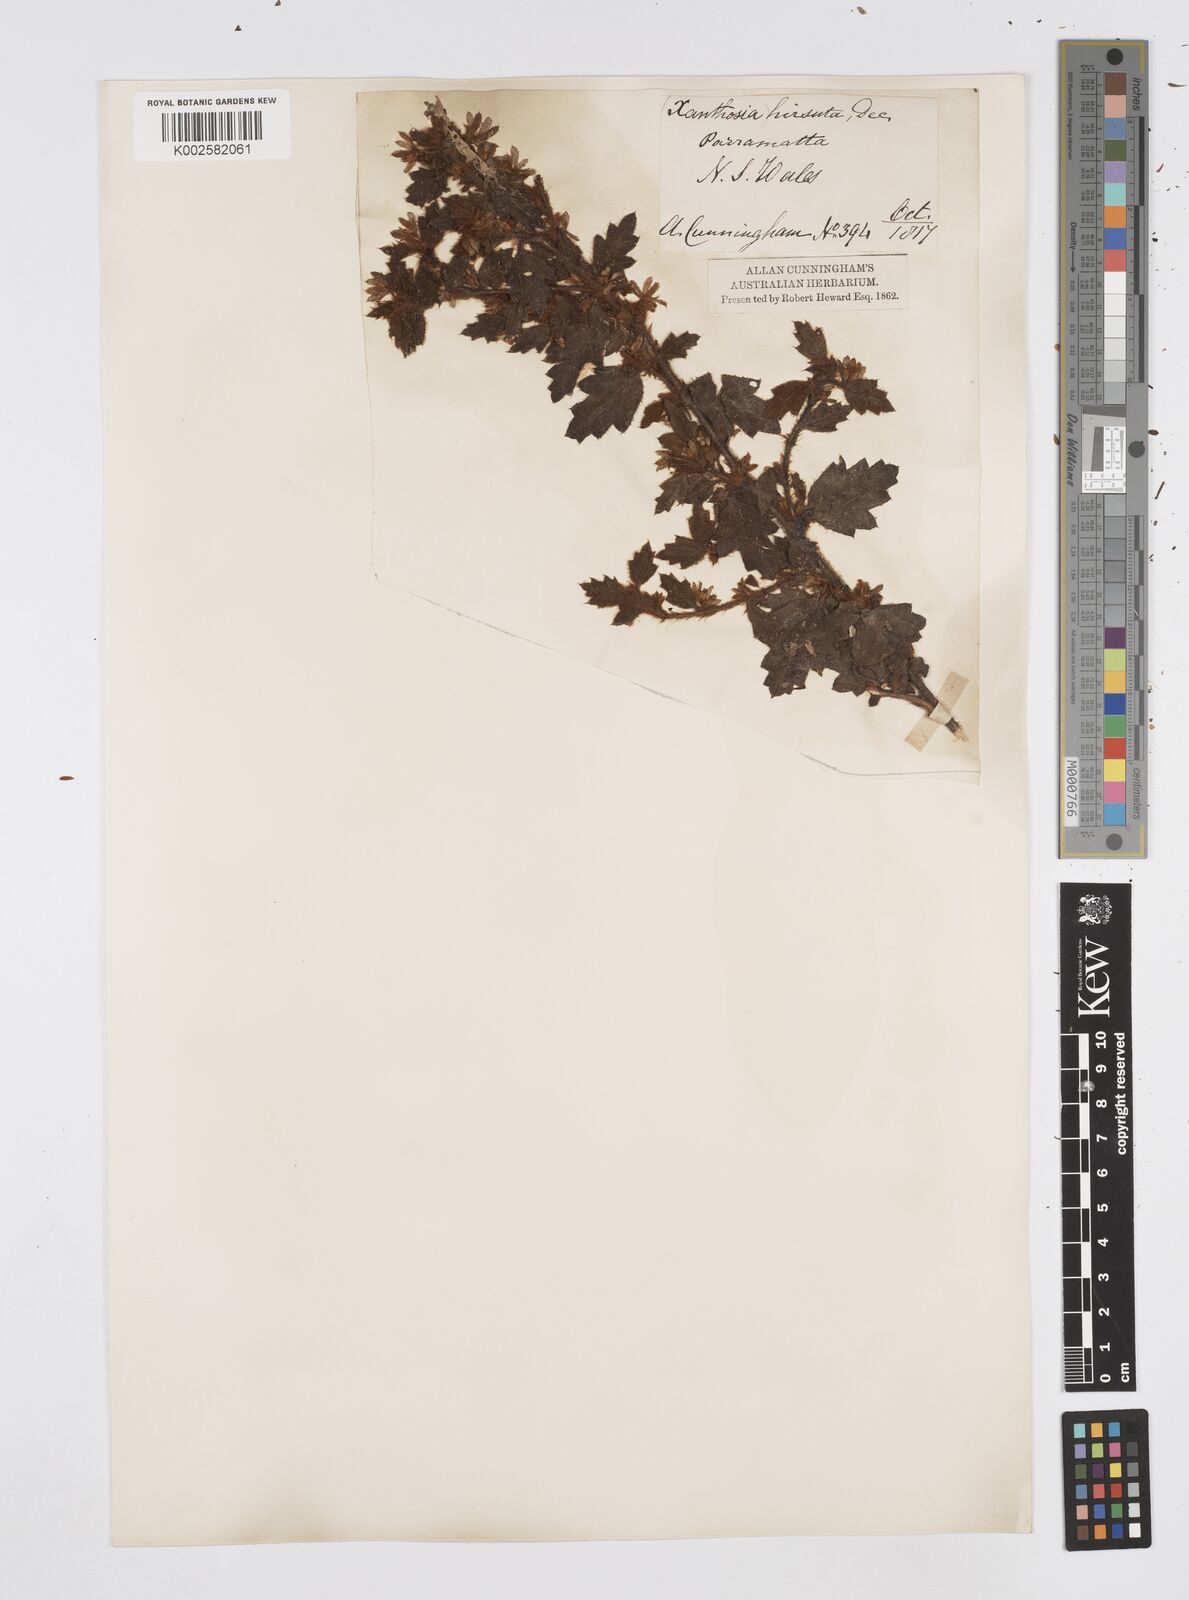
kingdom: Plantae
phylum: Tracheophyta
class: Magnoliopsida
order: Apiales
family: Apiaceae
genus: Xanthosia
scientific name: Xanthosia pilosa
